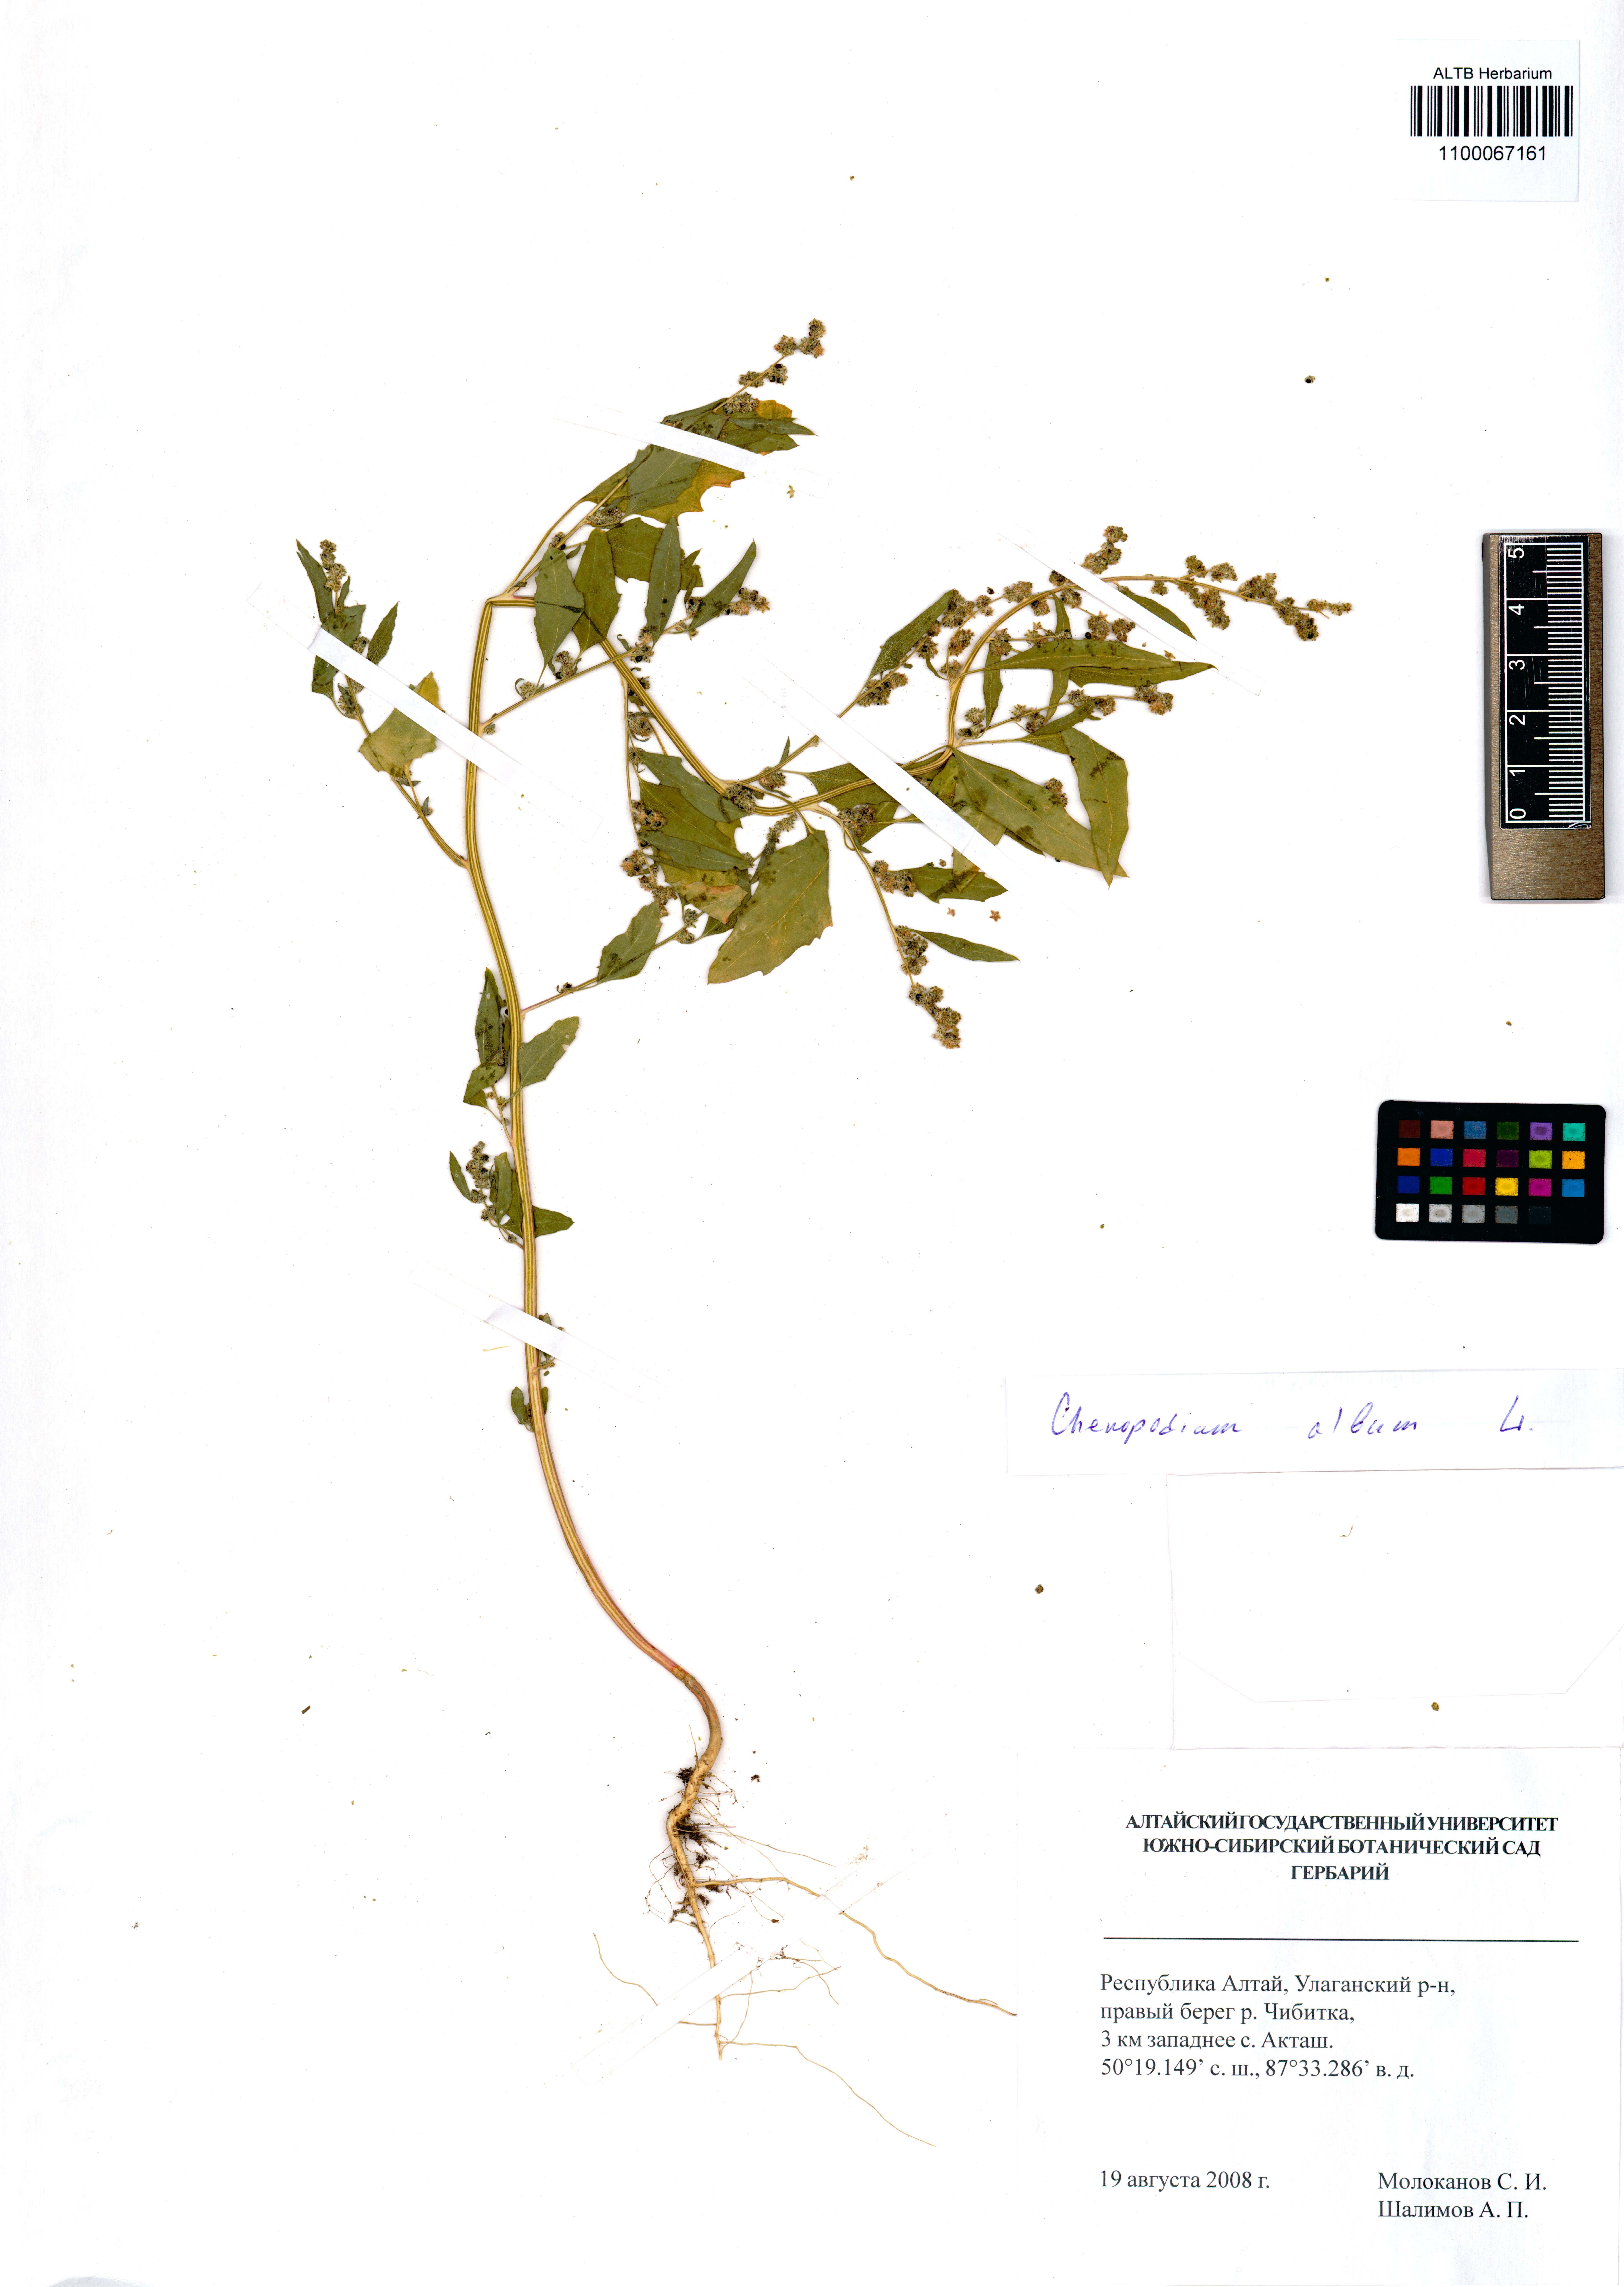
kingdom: Plantae
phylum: Tracheophyta
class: Magnoliopsida
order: Caryophyllales
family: Amaranthaceae
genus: Chenopodium
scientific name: Chenopodium album
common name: Fat-hen
